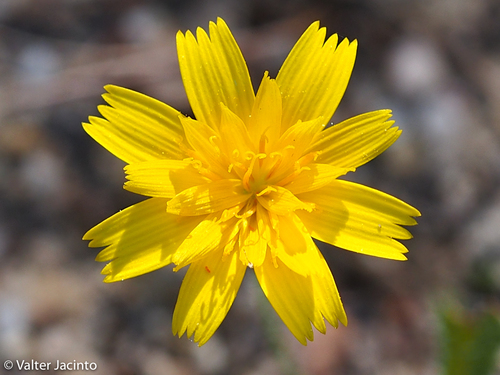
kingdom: Plantae
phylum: Tracheophyta
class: Magnoliopsida
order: Asterales
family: Asteraceae
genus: Leontodon
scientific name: Leontodon taraxacoides
